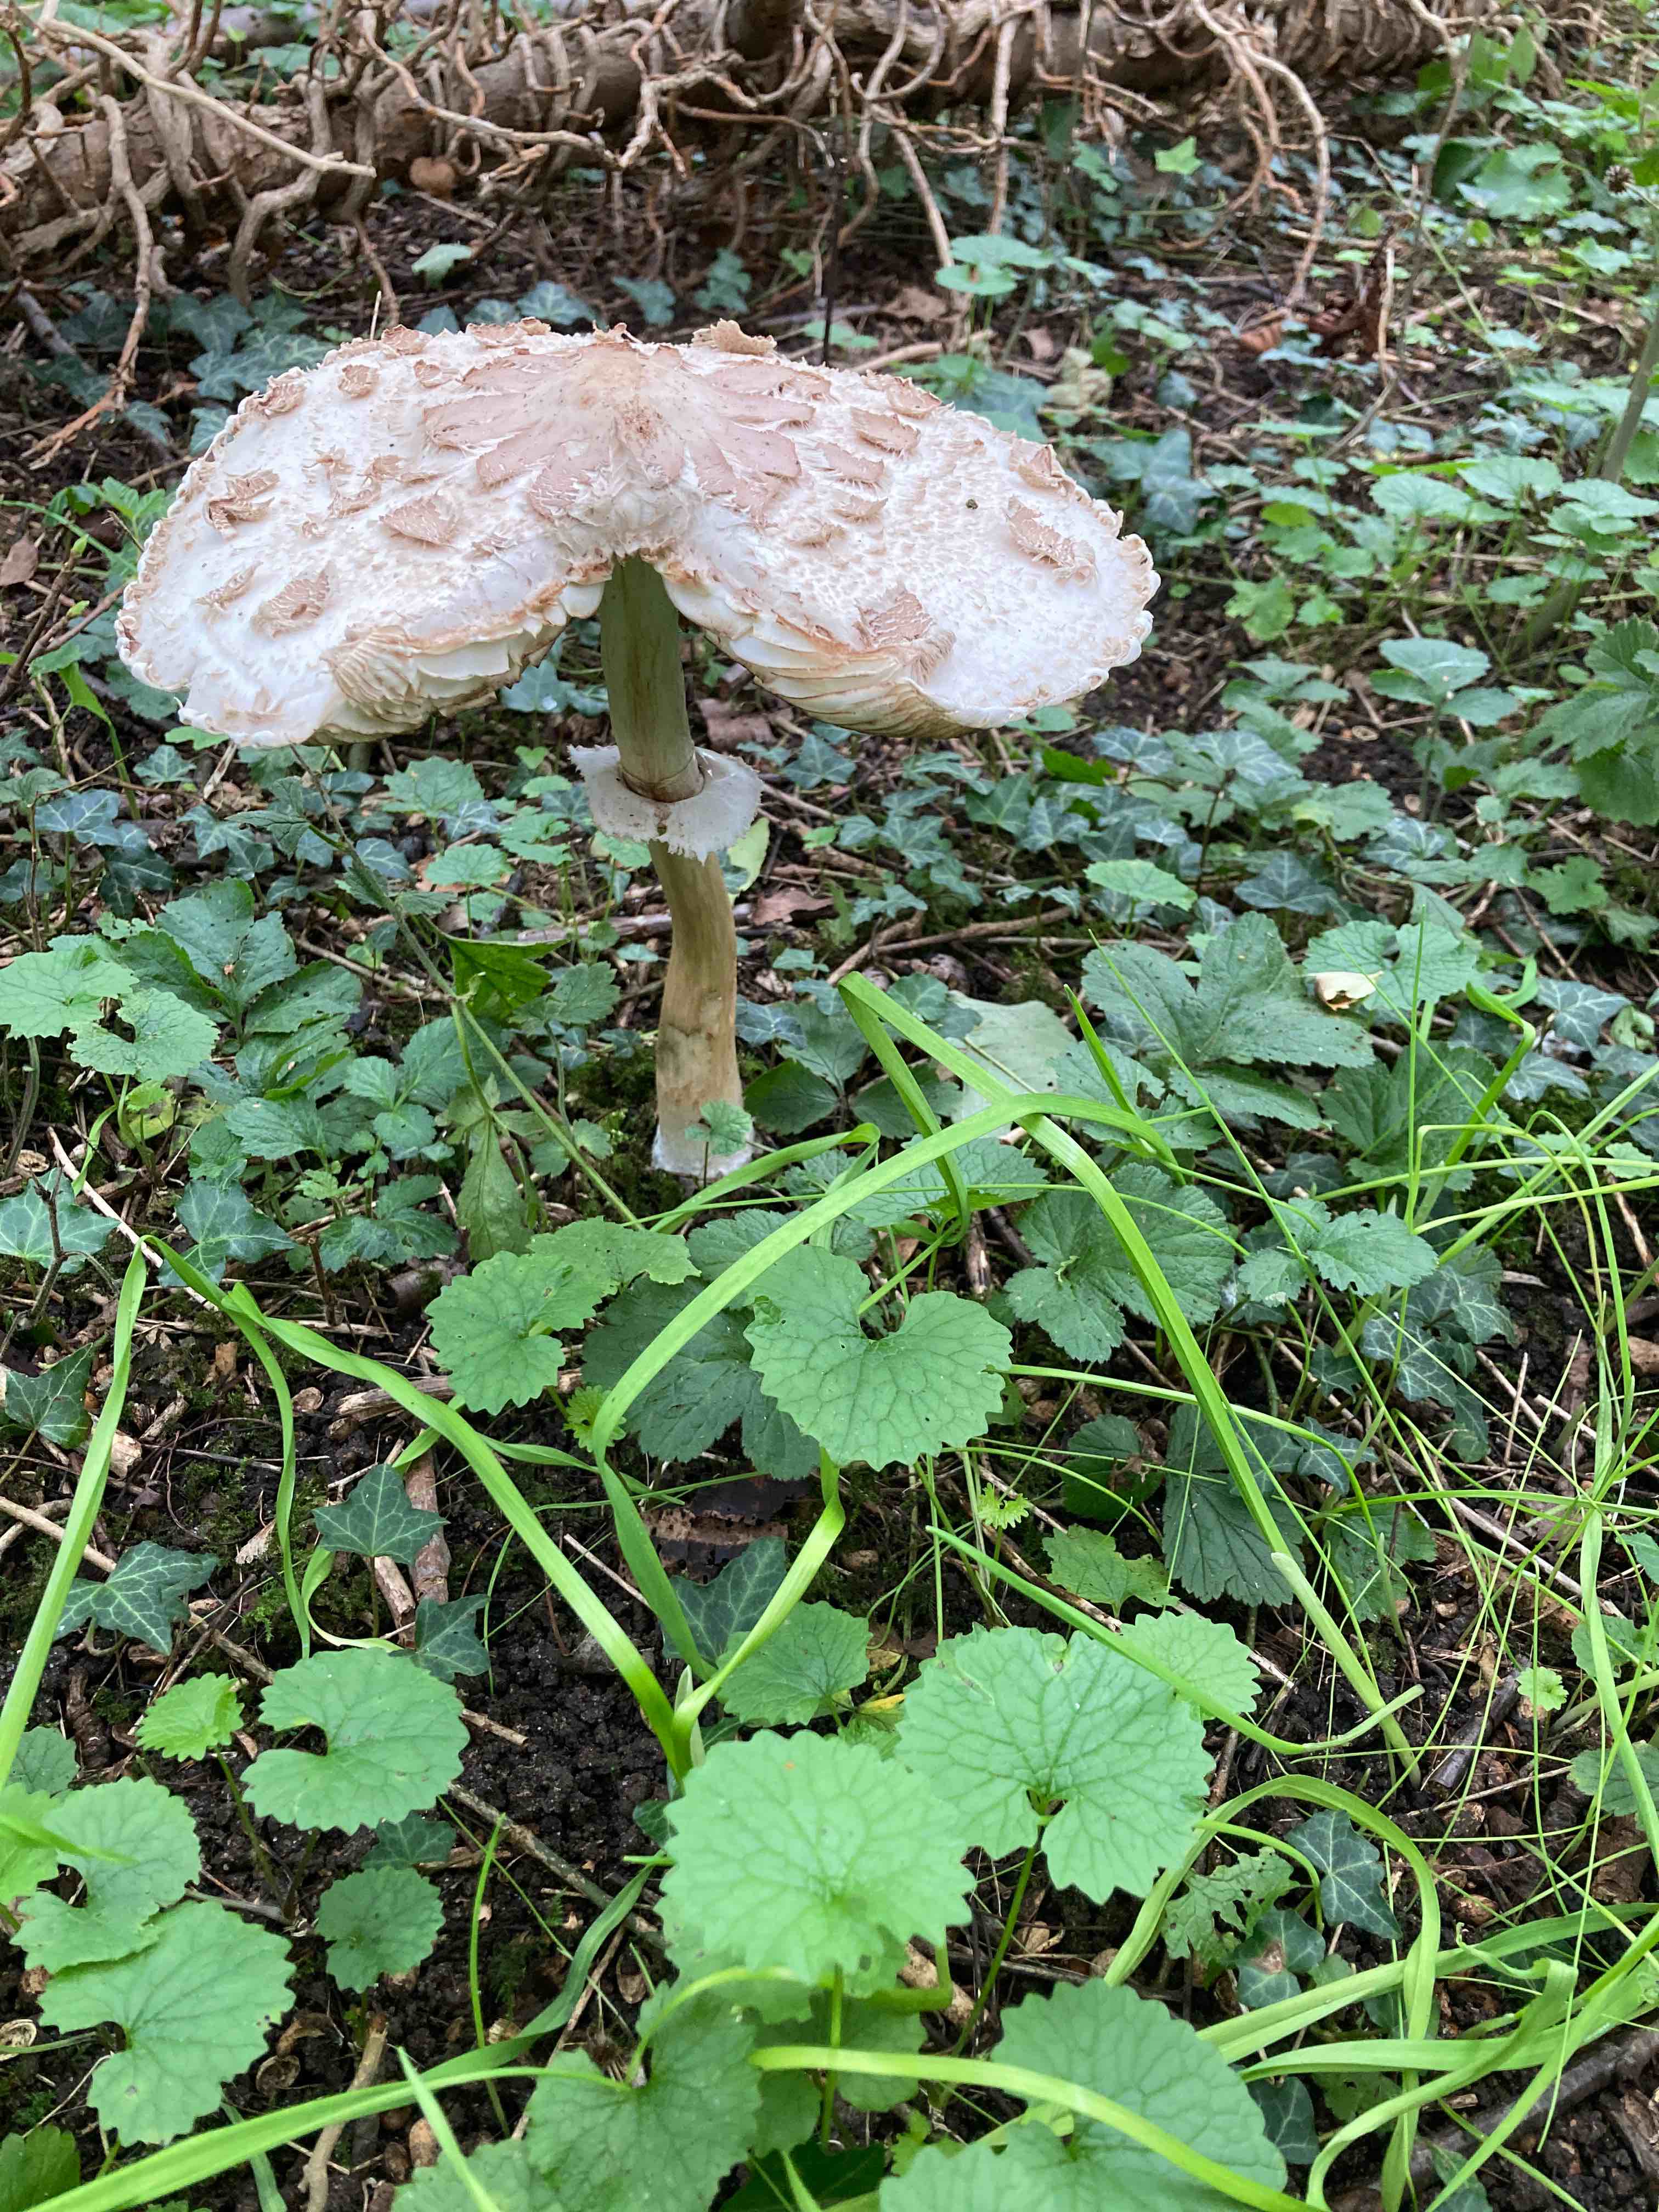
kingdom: Fungi
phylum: Basidiomycota
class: Agaricomycetes
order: Agaricales
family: Agaricaceae
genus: Chlorophyllum
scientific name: Chlorophyllum
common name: rabarberhat
